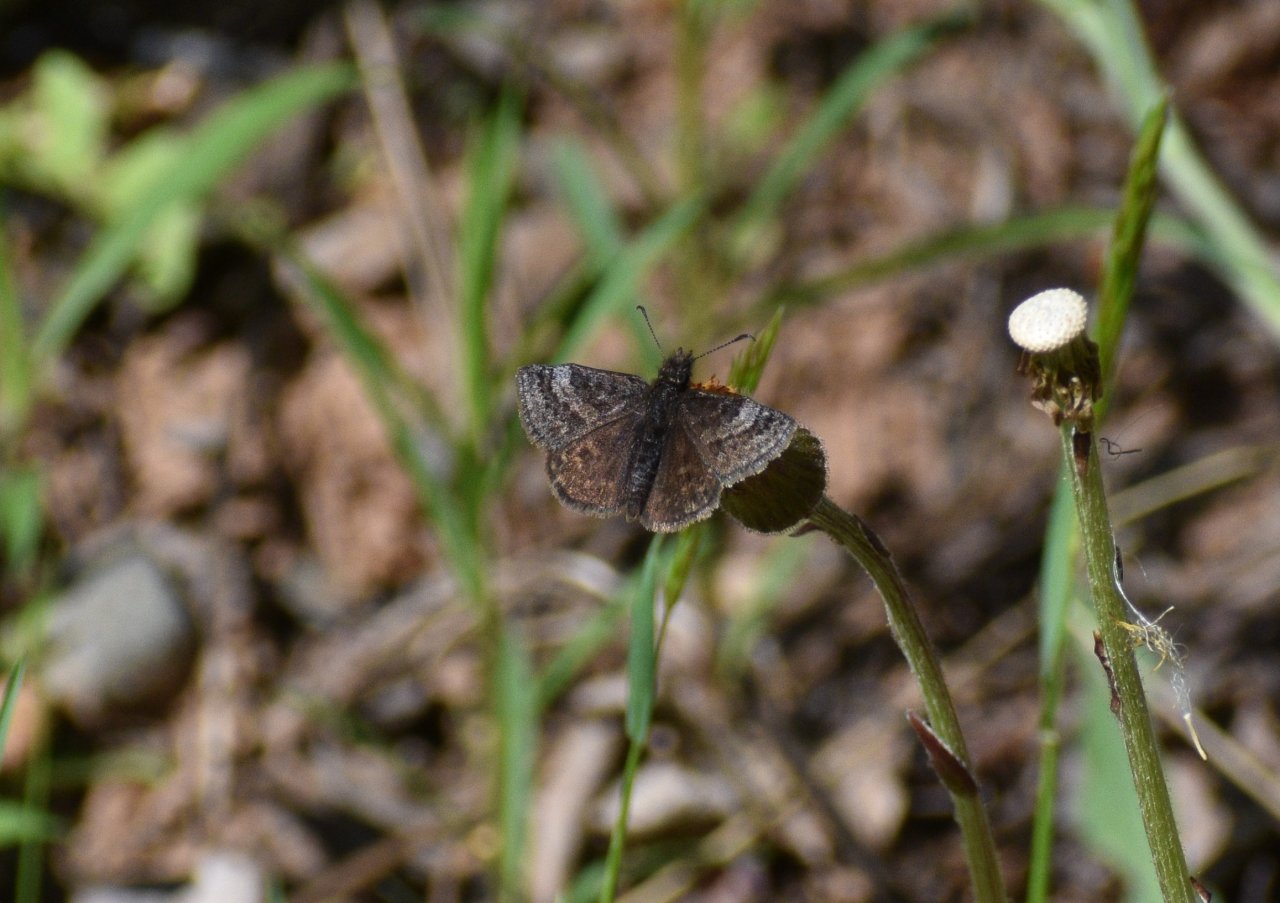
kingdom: Animalia
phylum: Arthropoda
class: Insecta
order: Lepidoptera
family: Hesperiidae
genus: Erynnis
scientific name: Erynnis icelus
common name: Dreamy Duskywing
